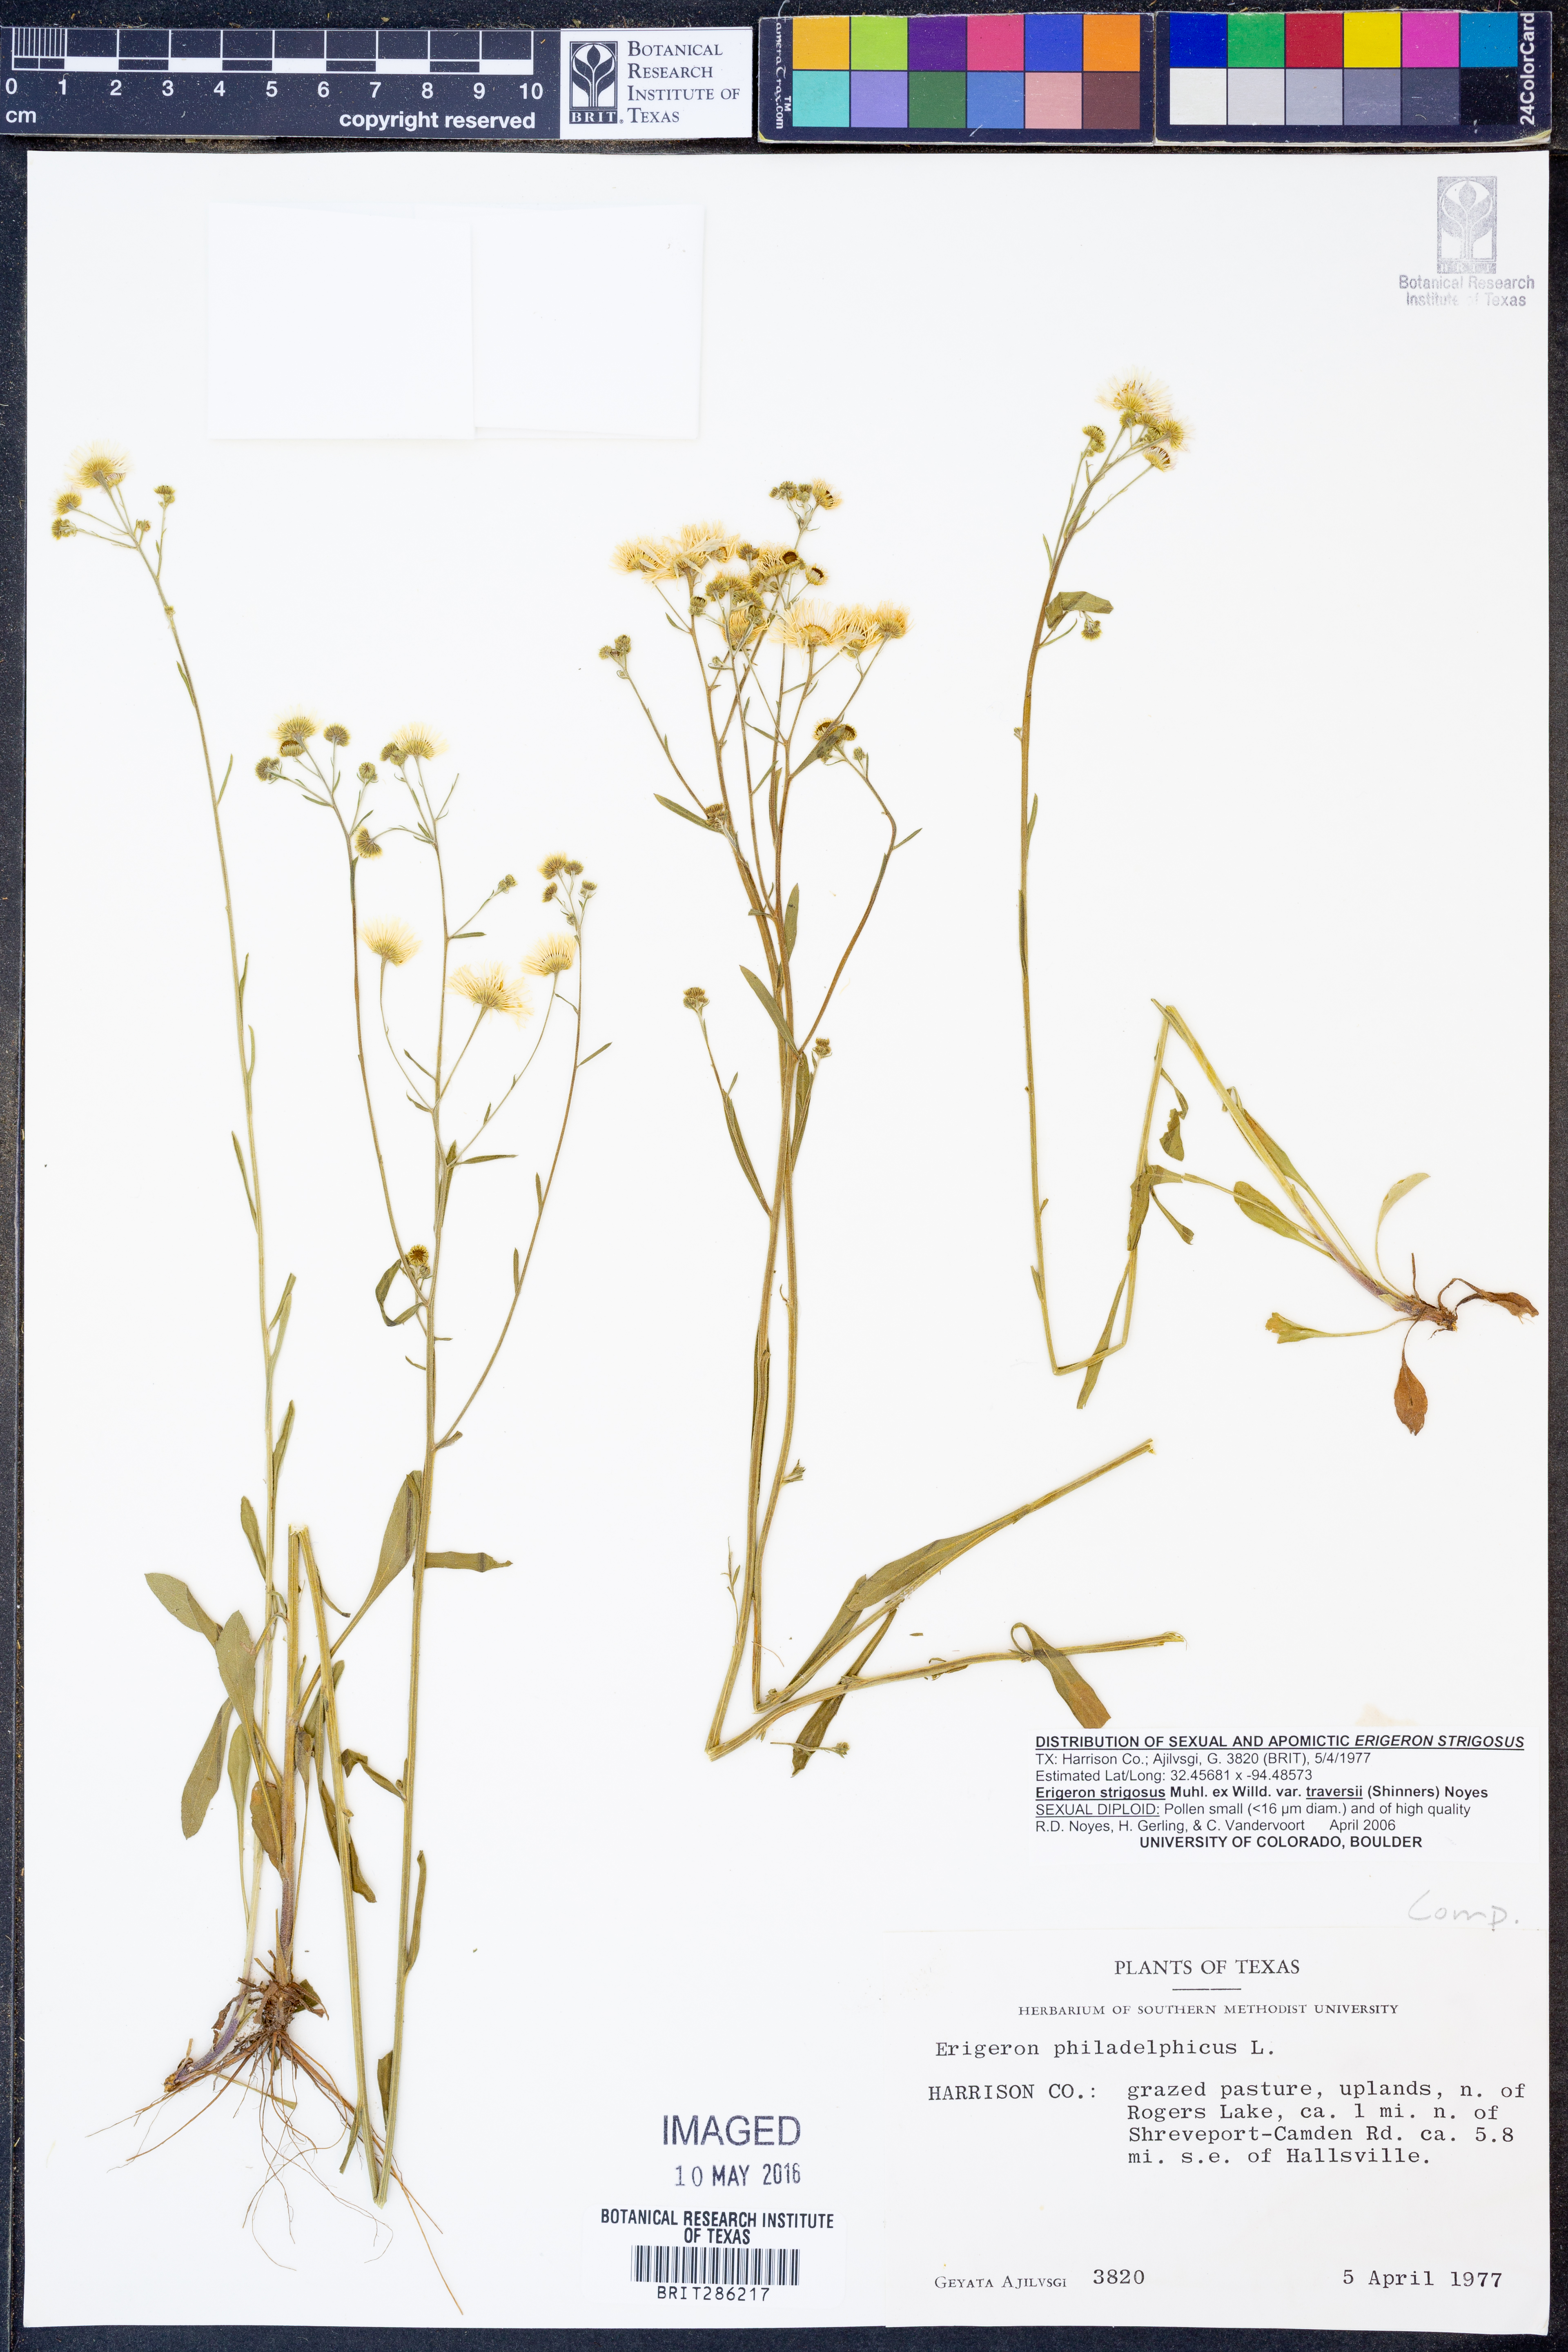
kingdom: Plantae
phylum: Tracheophyta
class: Magnoliopsida
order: Asterales
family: Asteraceae
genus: Erigeron
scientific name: Erigeron strigosus
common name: Common eastern fleabane
